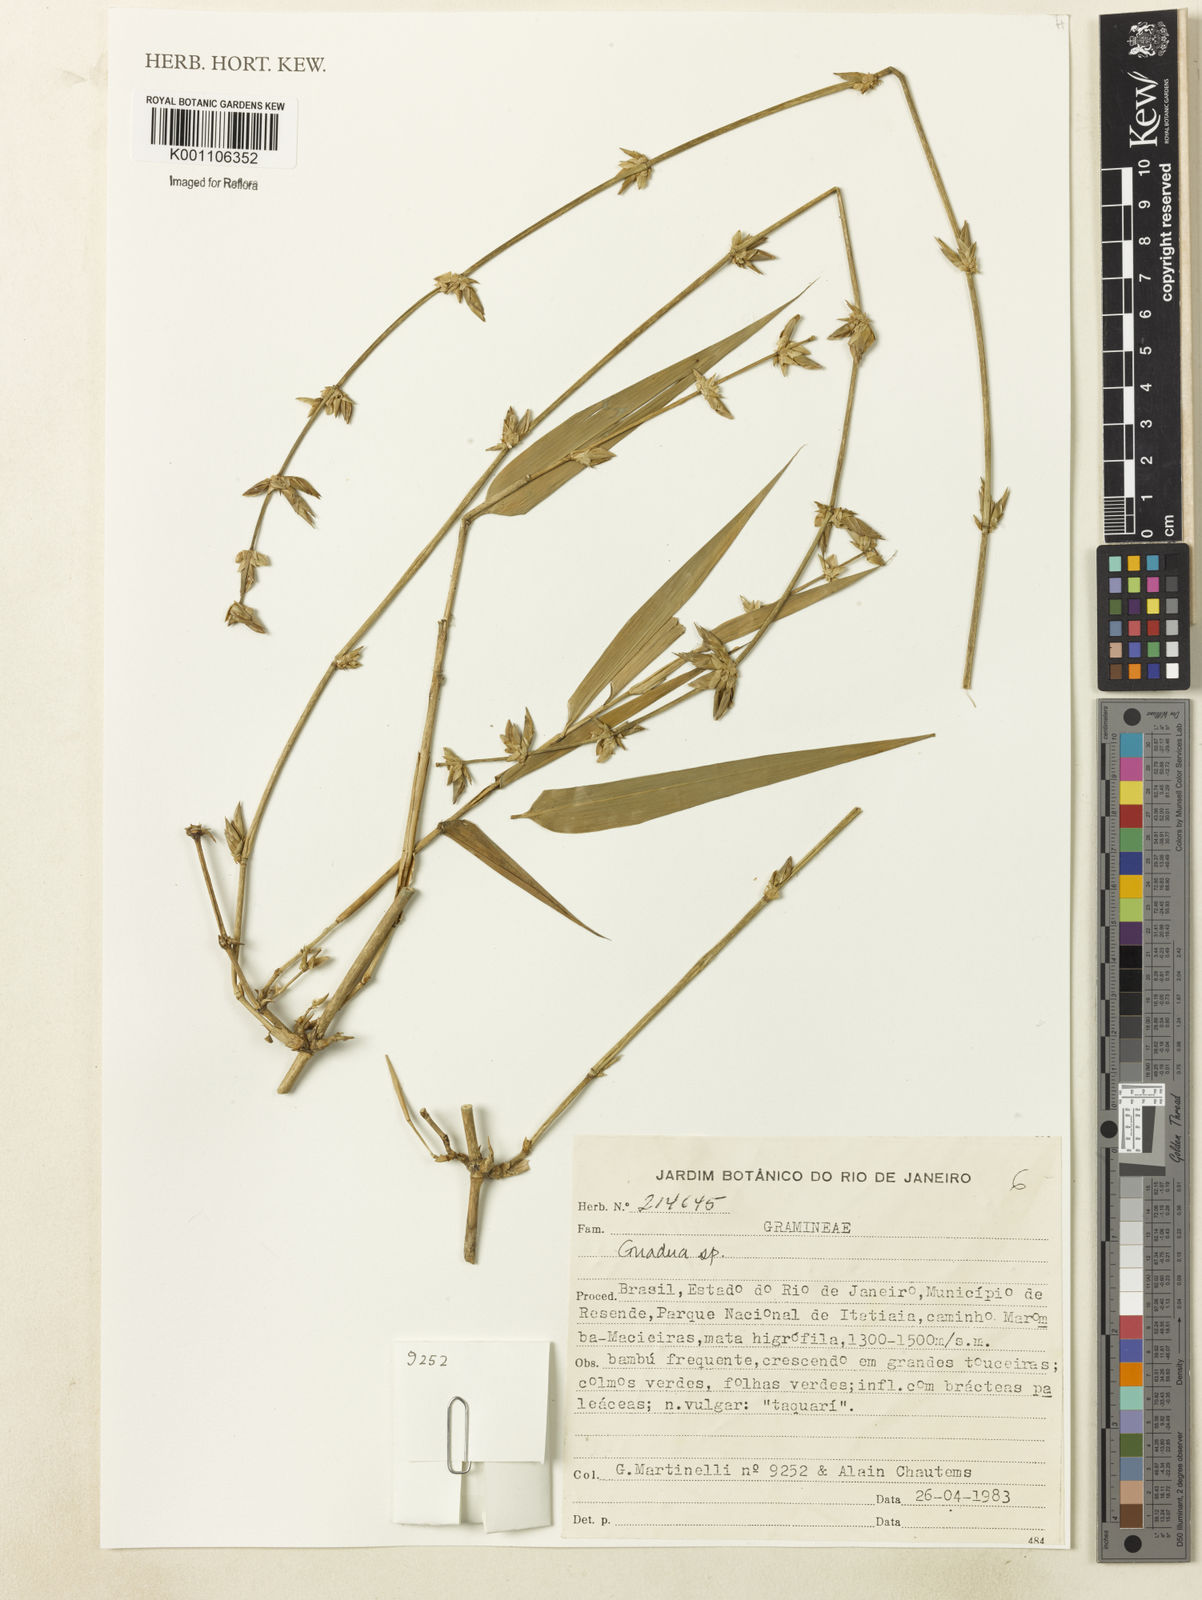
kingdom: Plantae
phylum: Tracheophyta
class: Liliopsida
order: Poales
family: Poaceae
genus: Guadua
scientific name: Guadua tagoara
